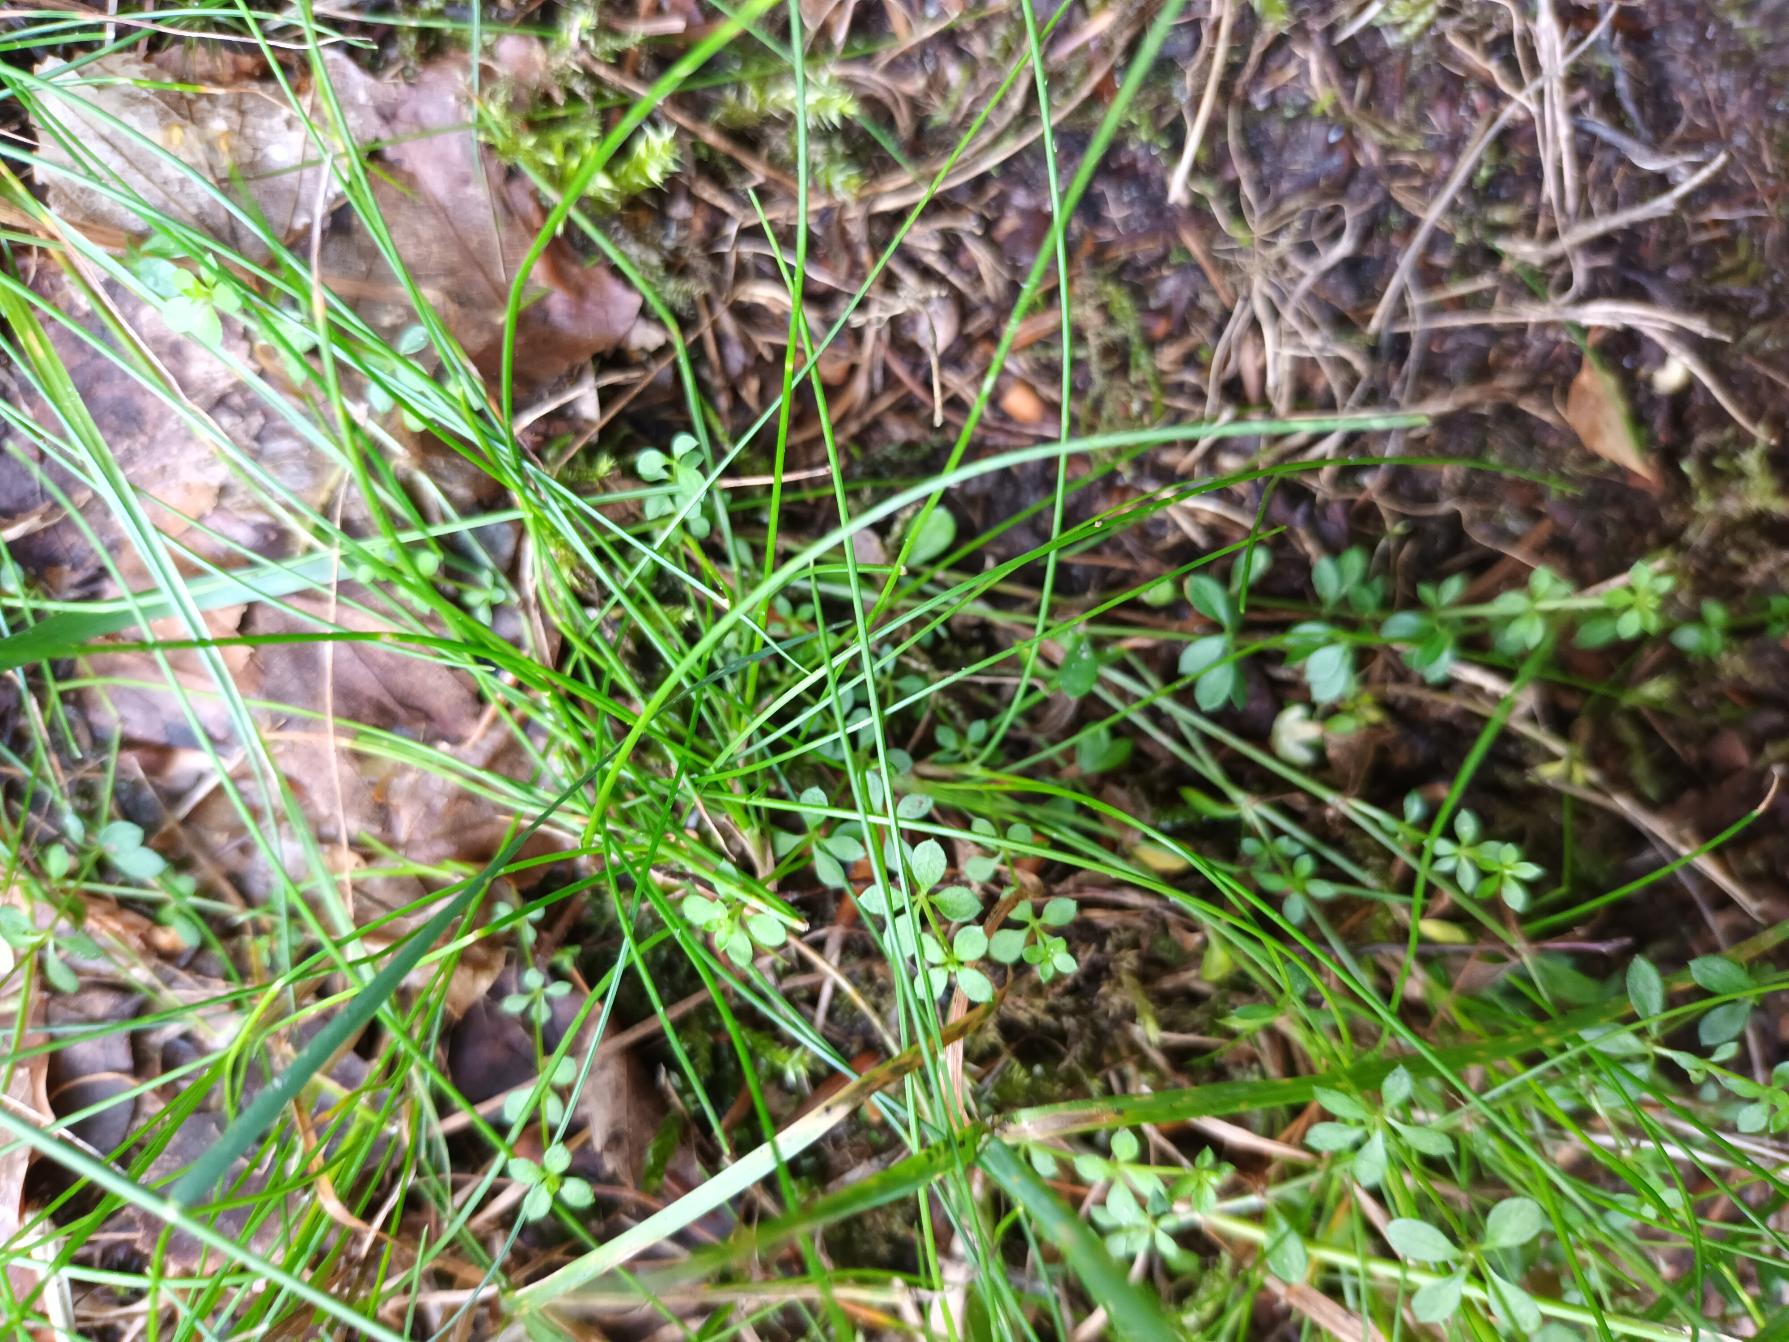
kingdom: Plantae
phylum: Tracheophyta
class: Magnoliopsida
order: Gentianales
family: Rubiaceae
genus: Galium
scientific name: Galium saxatile
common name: Lyng-snerre
